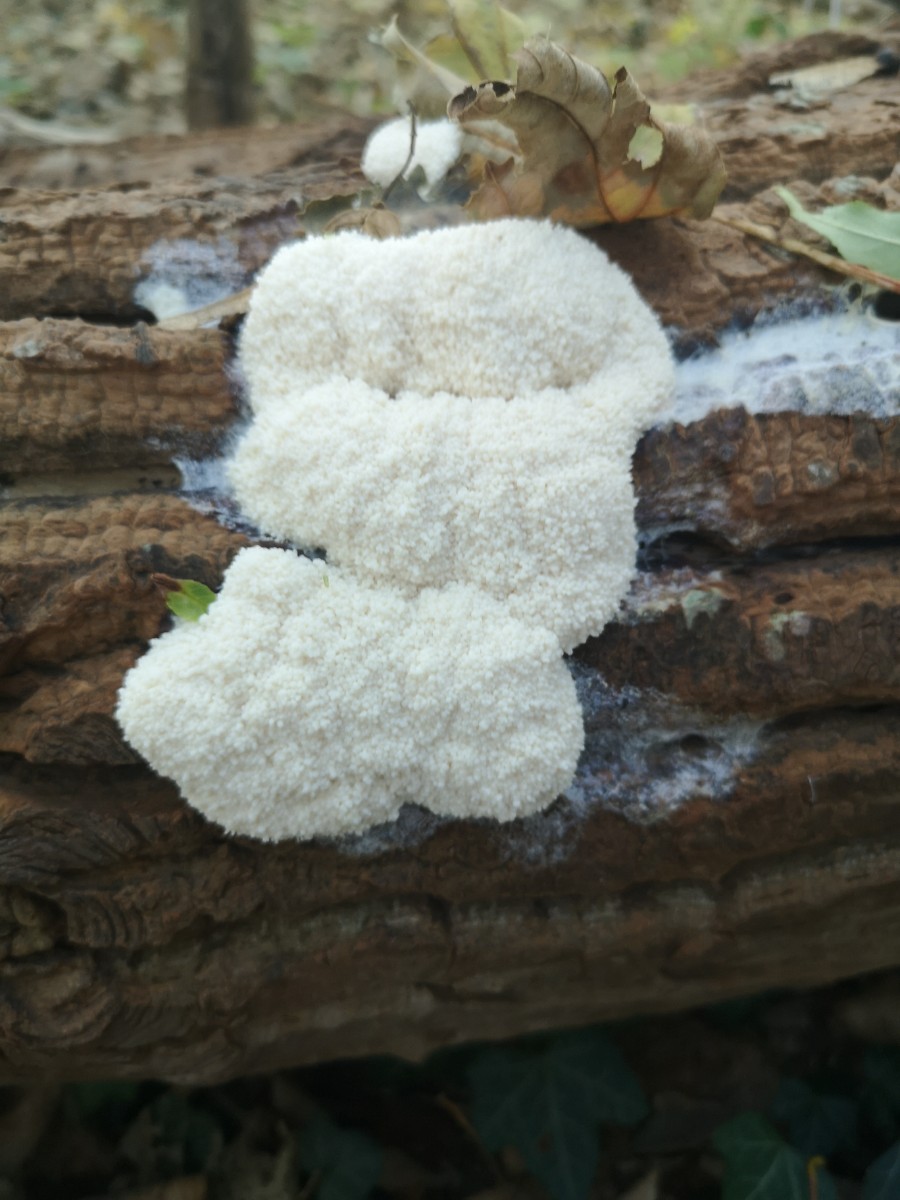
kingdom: Protozoa
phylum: Mycetozoa
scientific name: Mycetozoa
